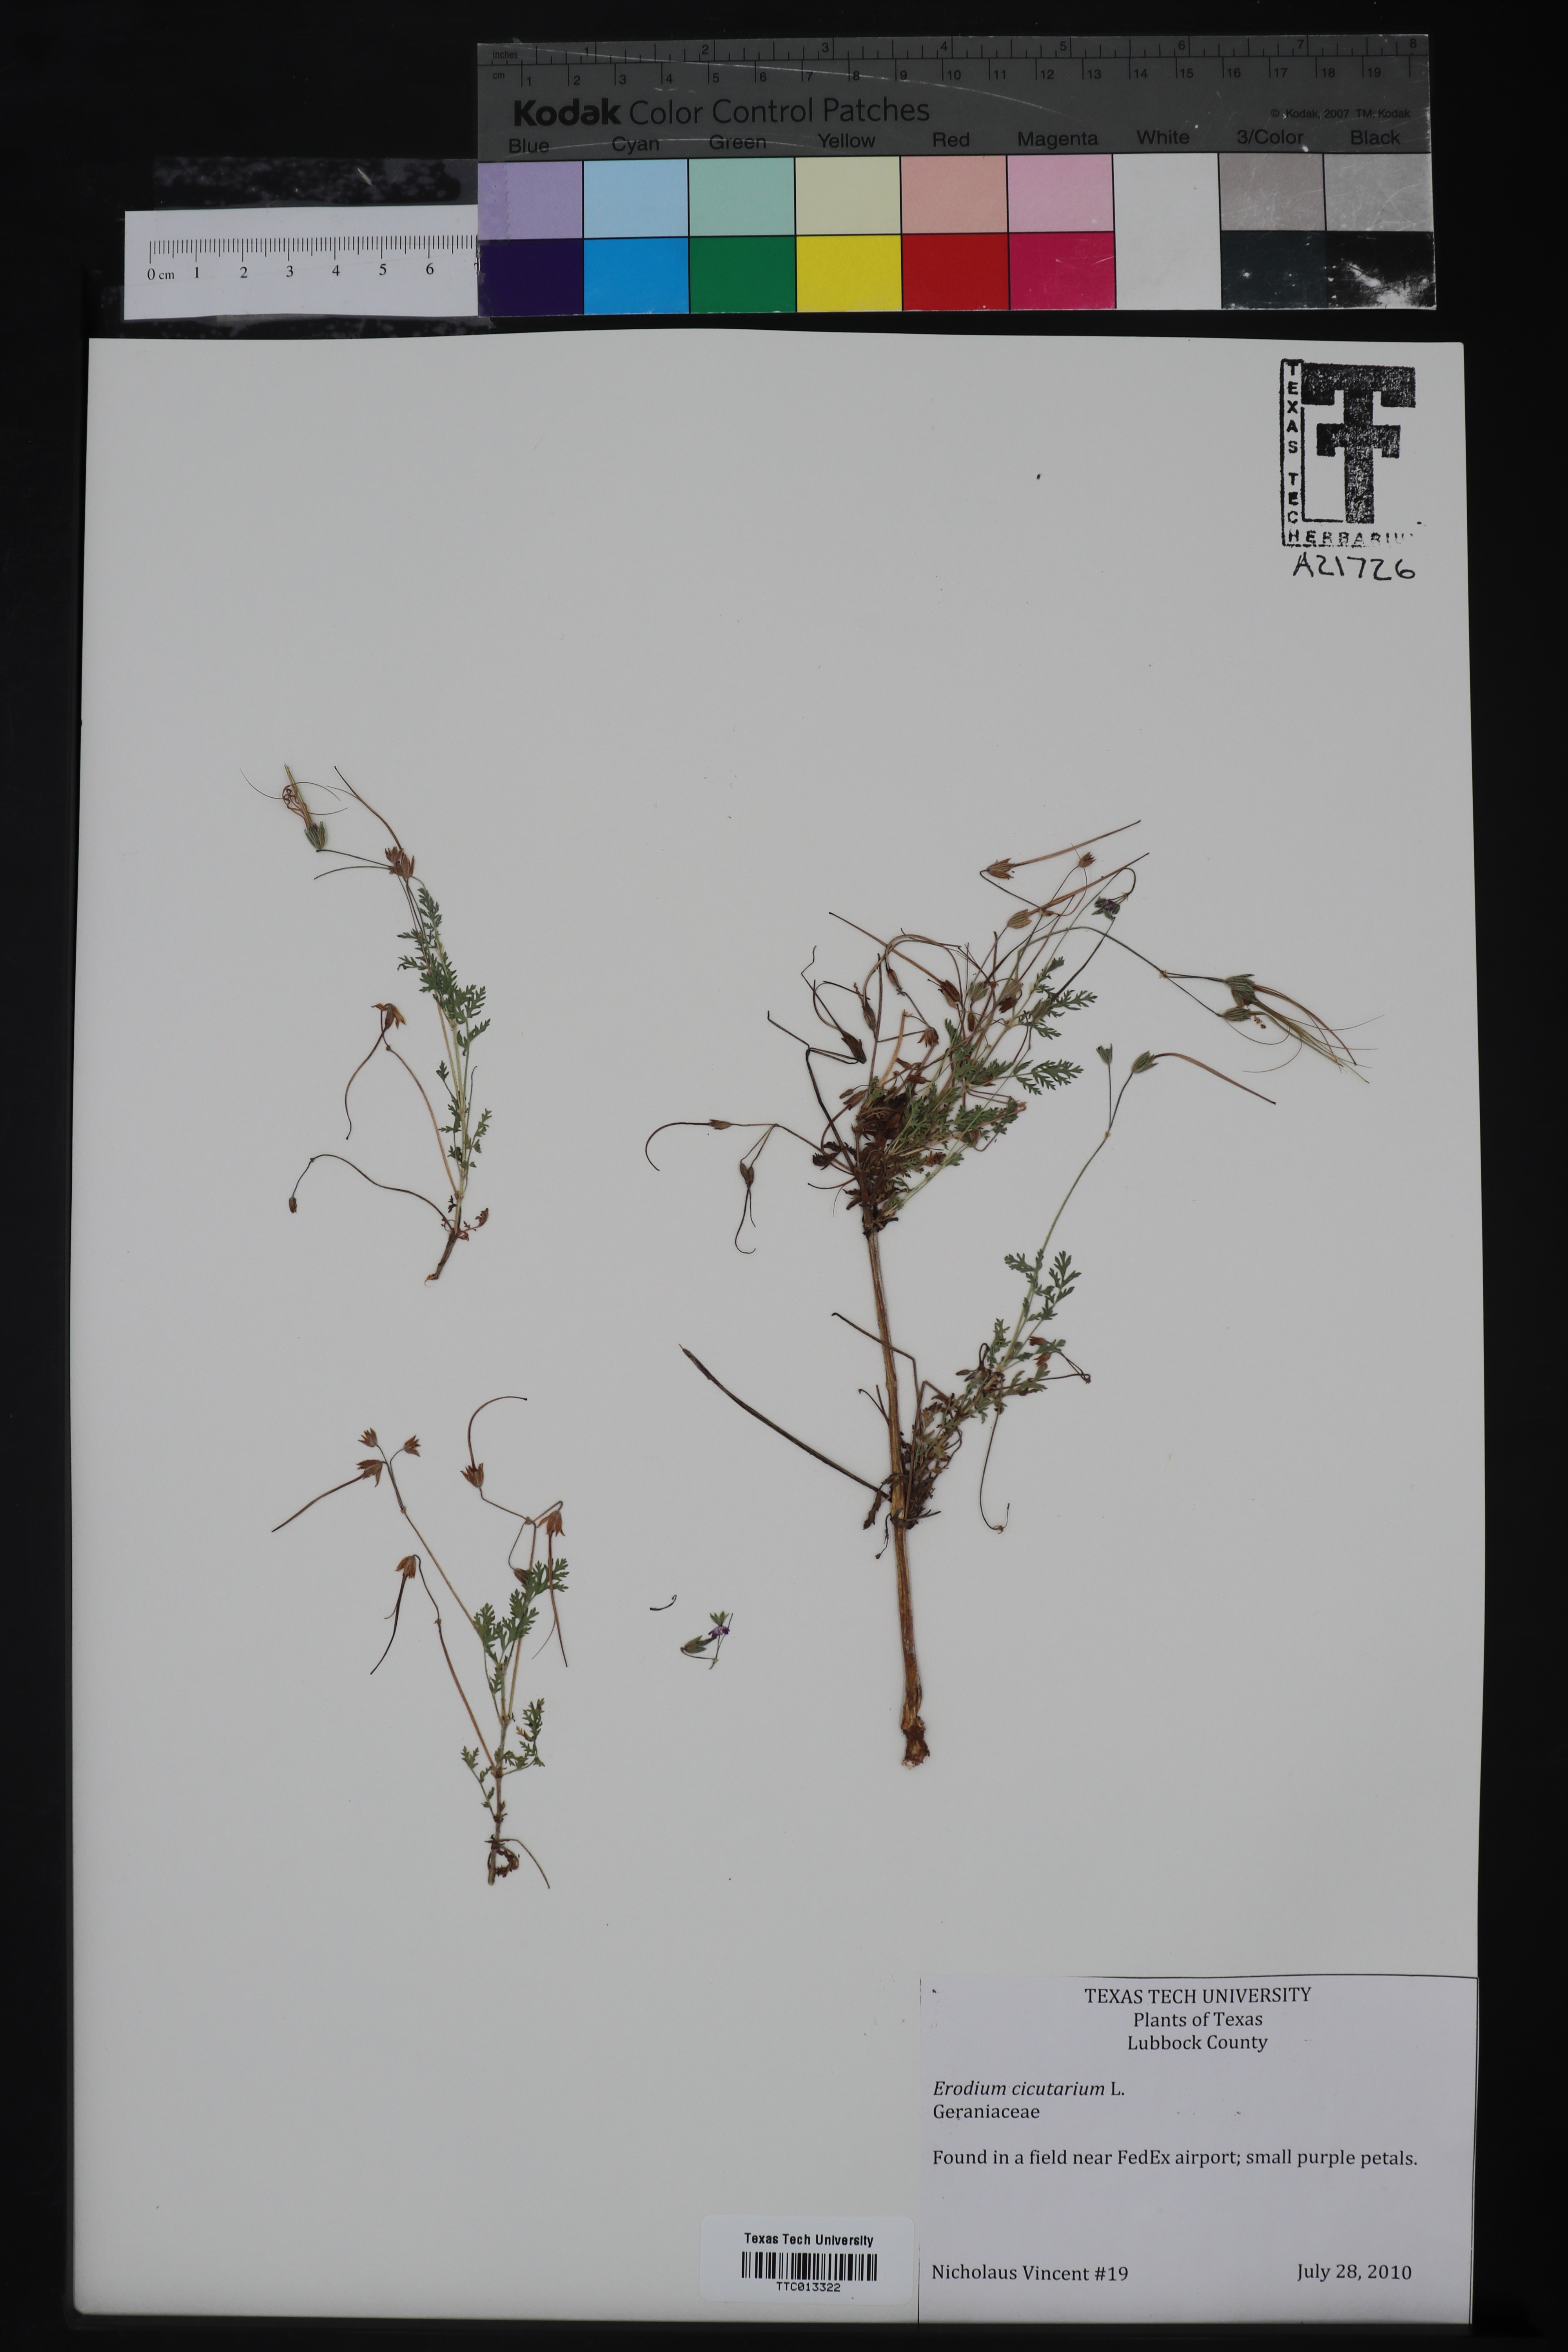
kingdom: Plantae
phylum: Tracheophyta
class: Magnoliopsida
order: Geraniales
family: Geraniaceae
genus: Erodium
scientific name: Erodium cicutarium
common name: Common stork's-bill
